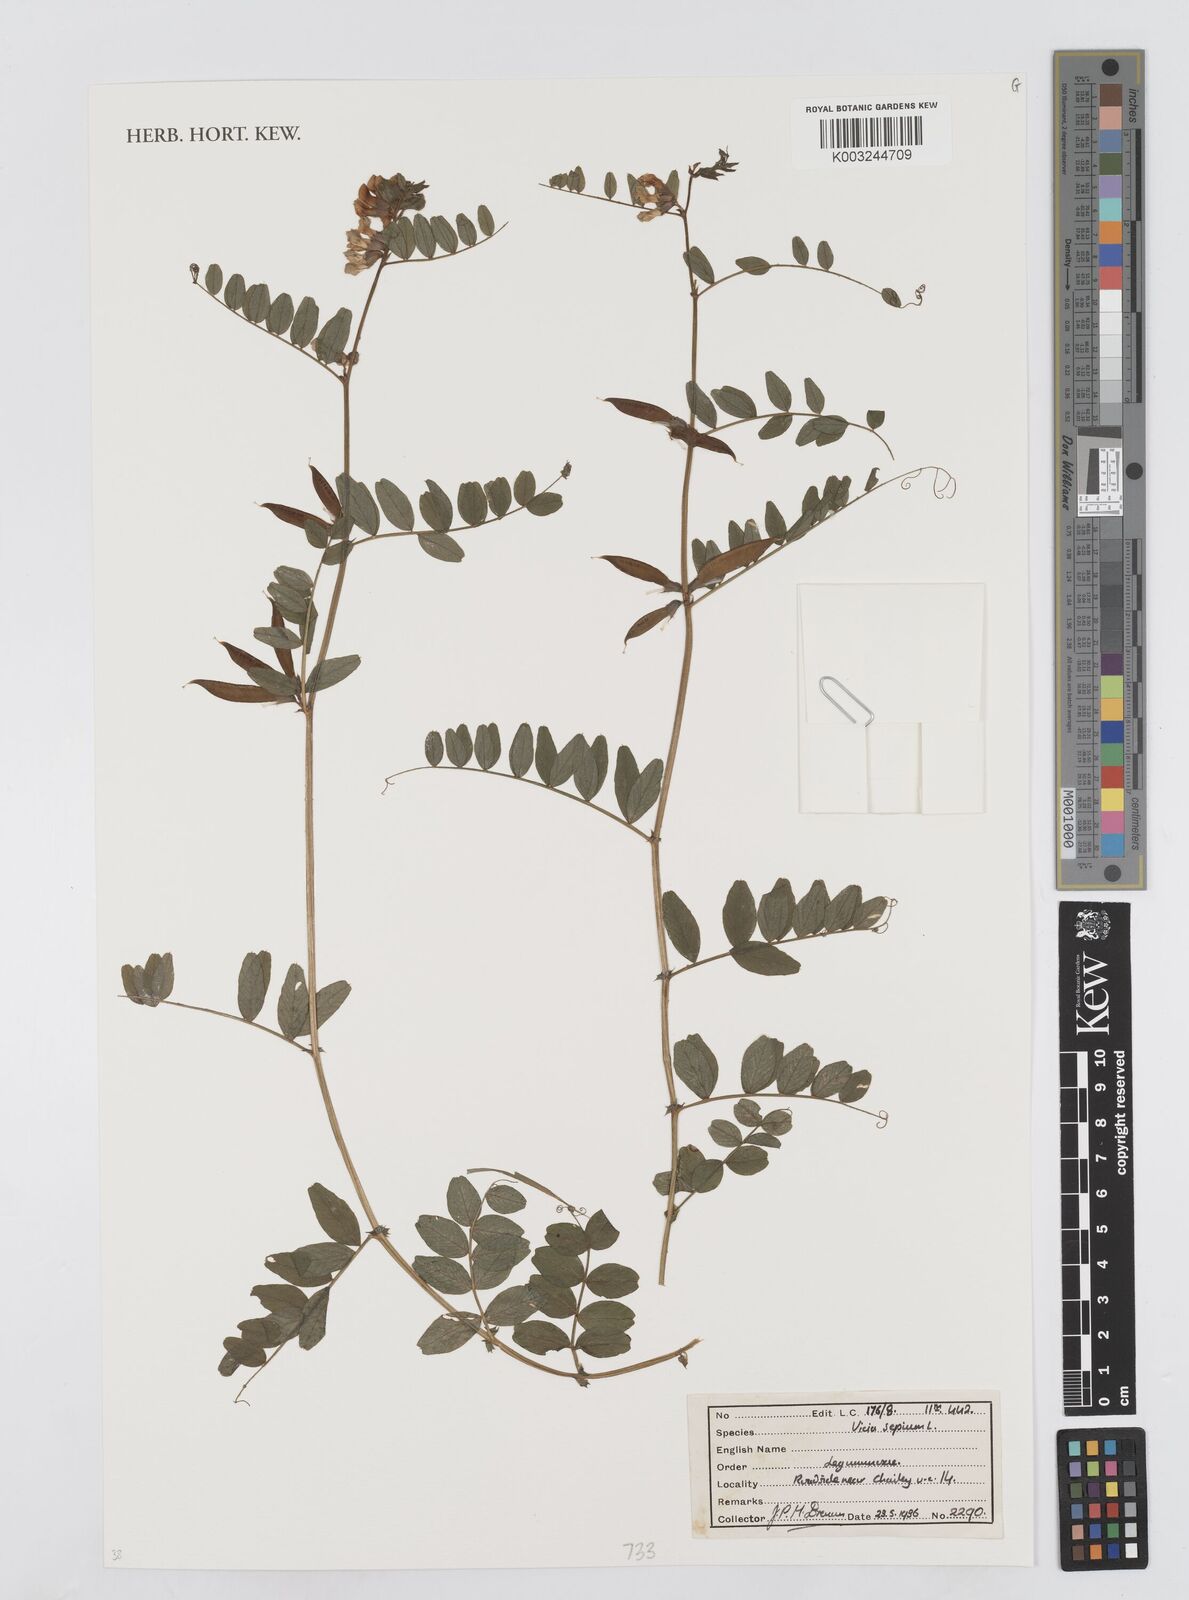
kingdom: Plantae
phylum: Tracheophyta
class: Magnoliopsida
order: Fabales
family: Fabaceae
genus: Vicia
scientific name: Vicia sepium
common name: Bush vetch
